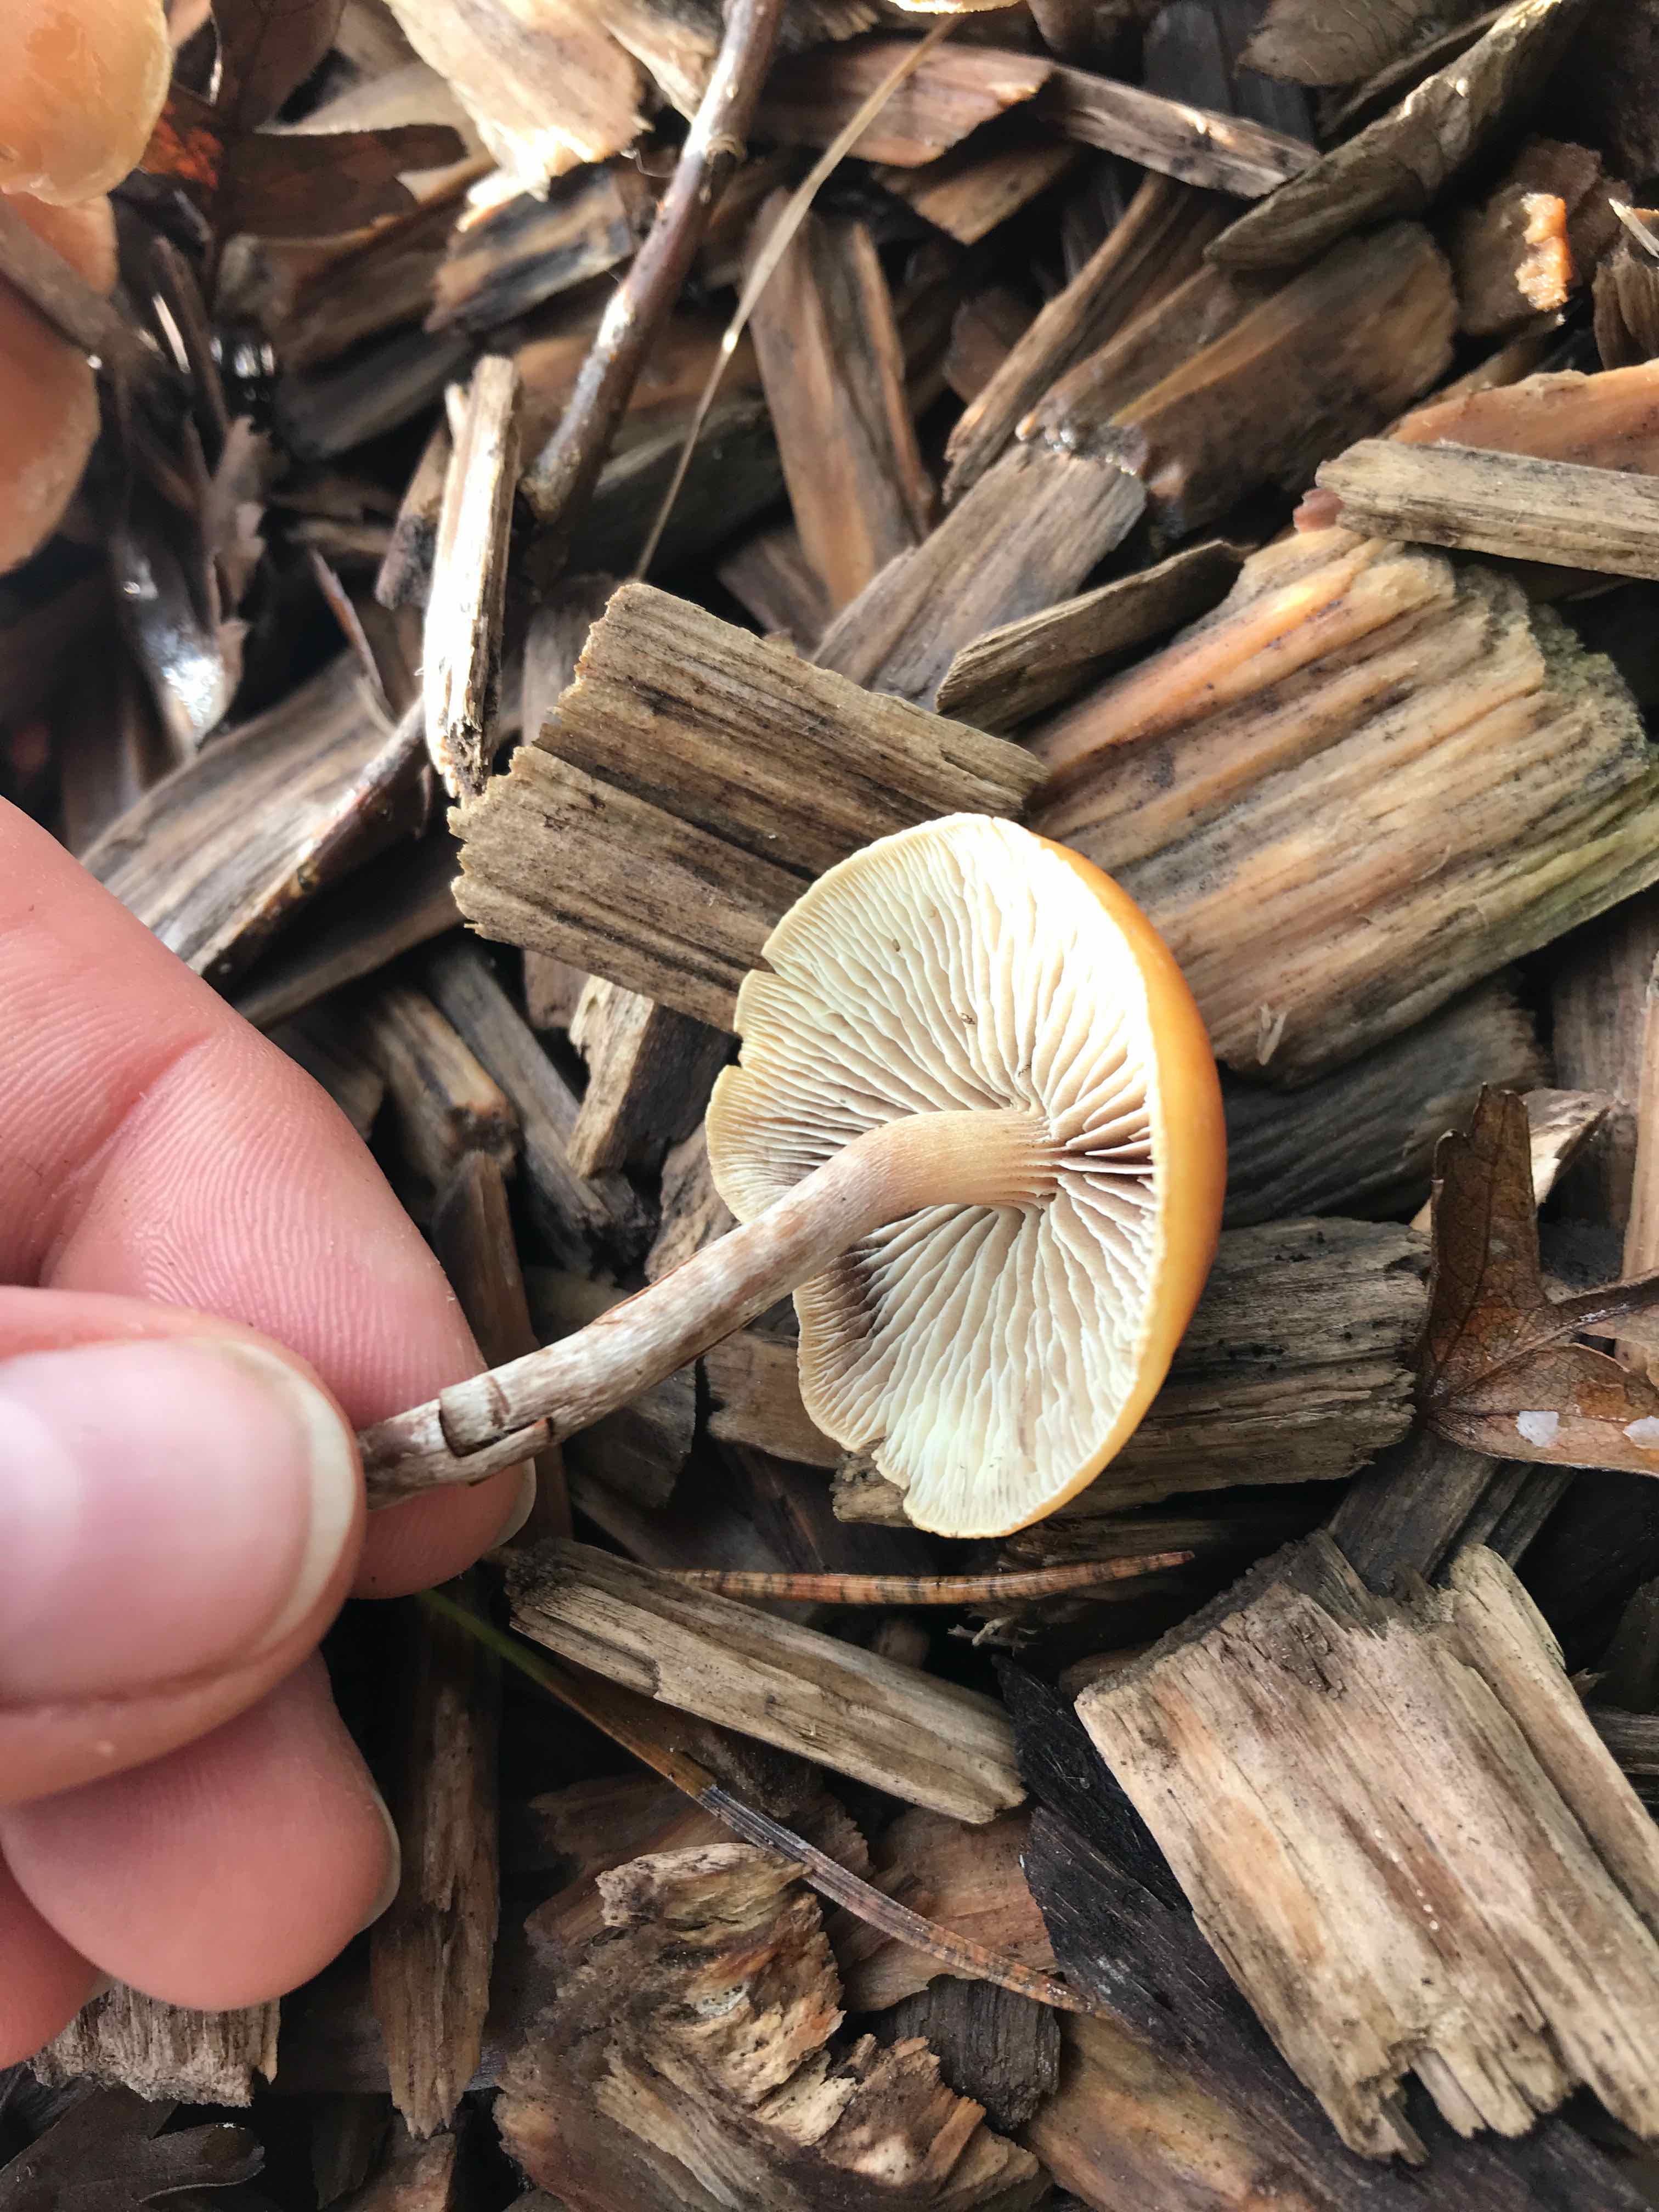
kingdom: Fungi
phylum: Basidiomycota
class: Agaricomycetes
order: Agaricales
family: Strophariaceae
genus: Hypholoma
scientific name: Hypholoma marginatum
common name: enlig svovlhat
